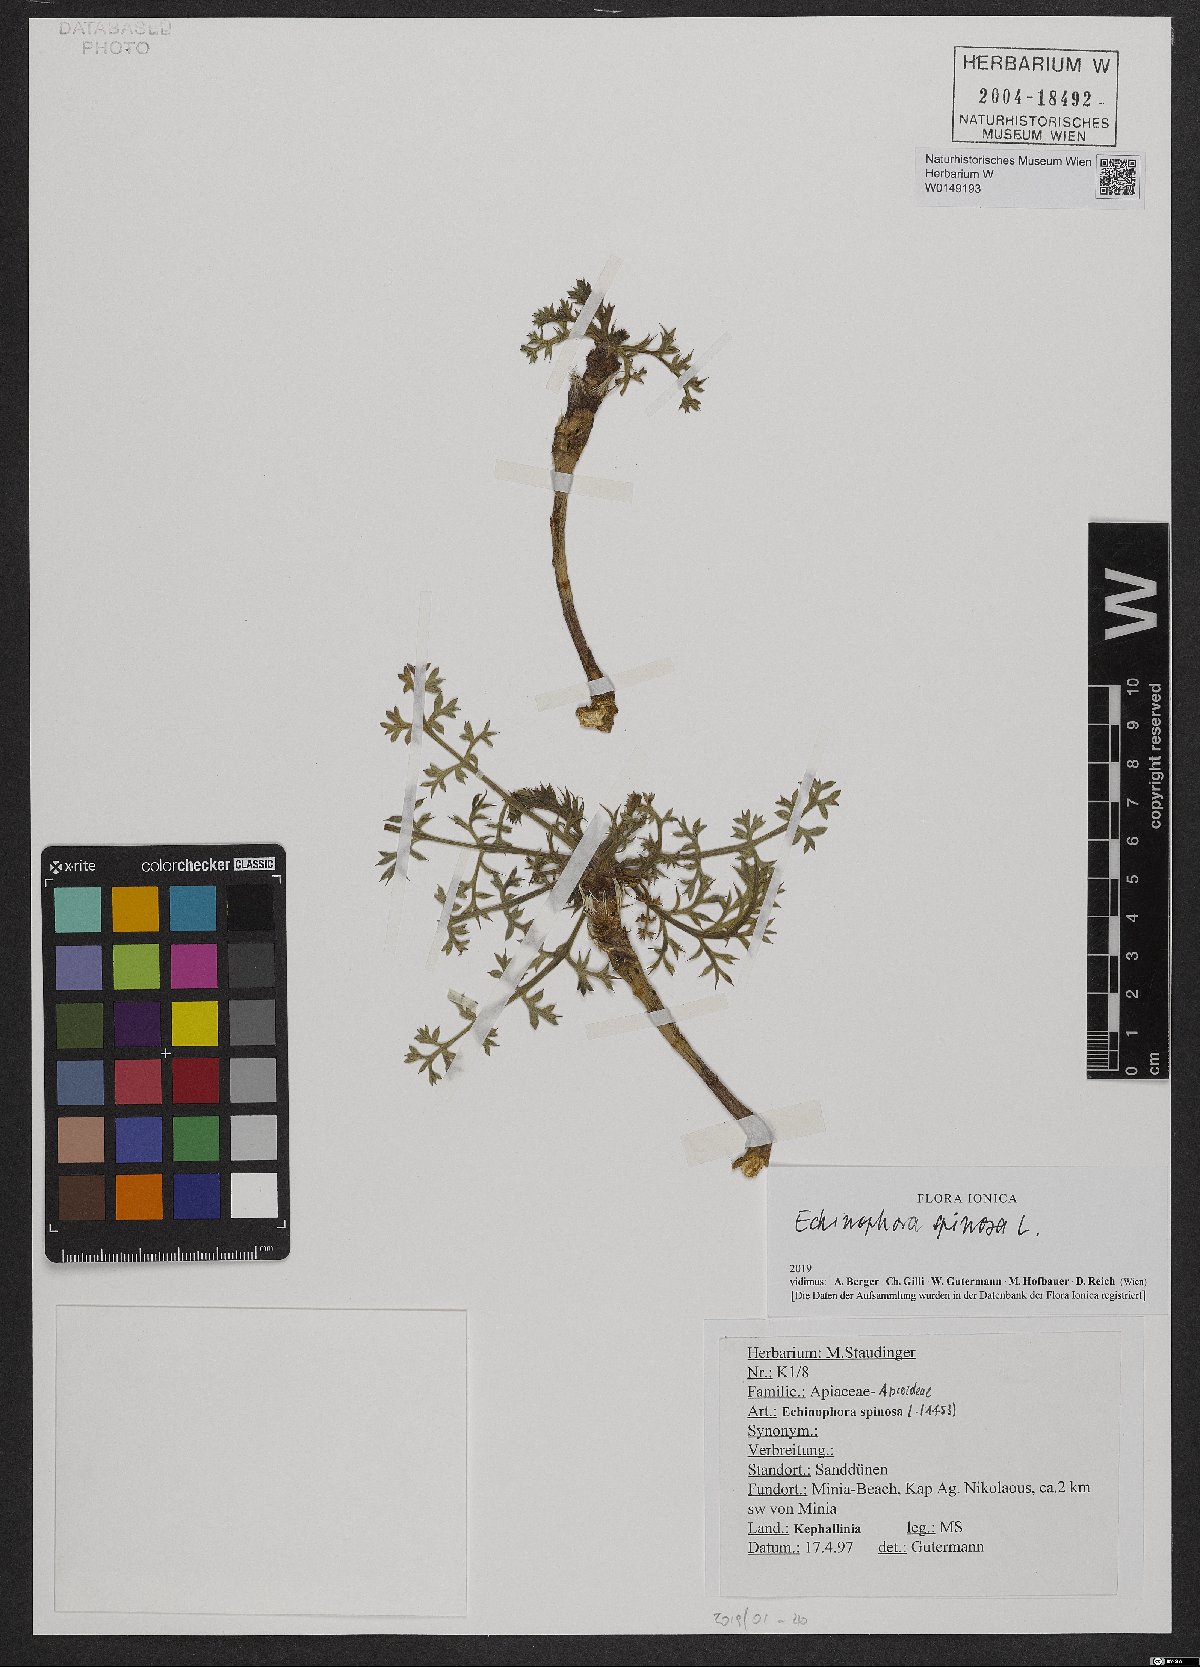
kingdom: Plantae
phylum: Tracheophyta
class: Magnoliopsida
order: Apiales
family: Apiaceae
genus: Echinophora
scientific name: Echinophora spinosa
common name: Prickly samphire
